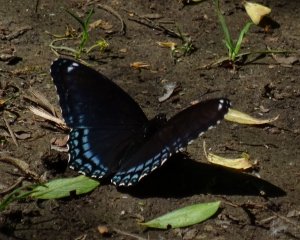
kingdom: Animalia
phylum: Arthropoda
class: Insecta
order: Lepidoptera
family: Nymphalidae
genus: Limenitis
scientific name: Limenitis astyanax
